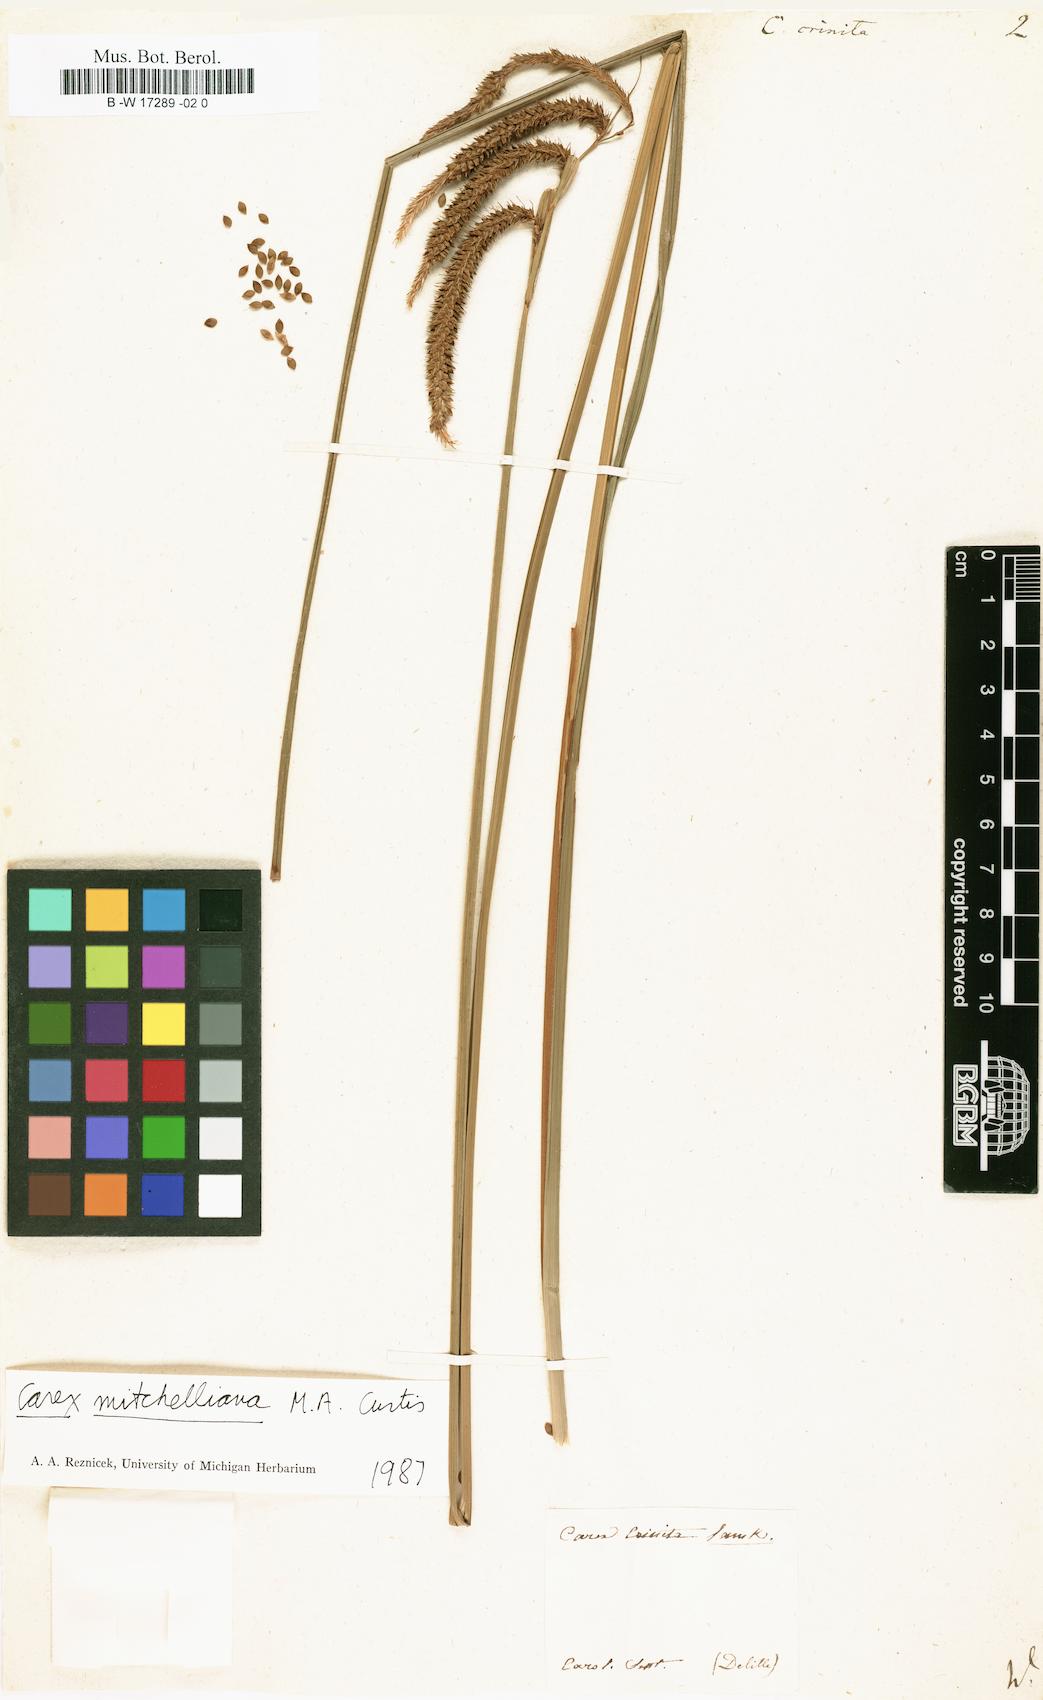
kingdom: Plantae
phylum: Tracheophyta
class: Liliopsida
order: Poales
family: Cyperaceae
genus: Carex
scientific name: Carex crinita
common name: Fringed sedge
